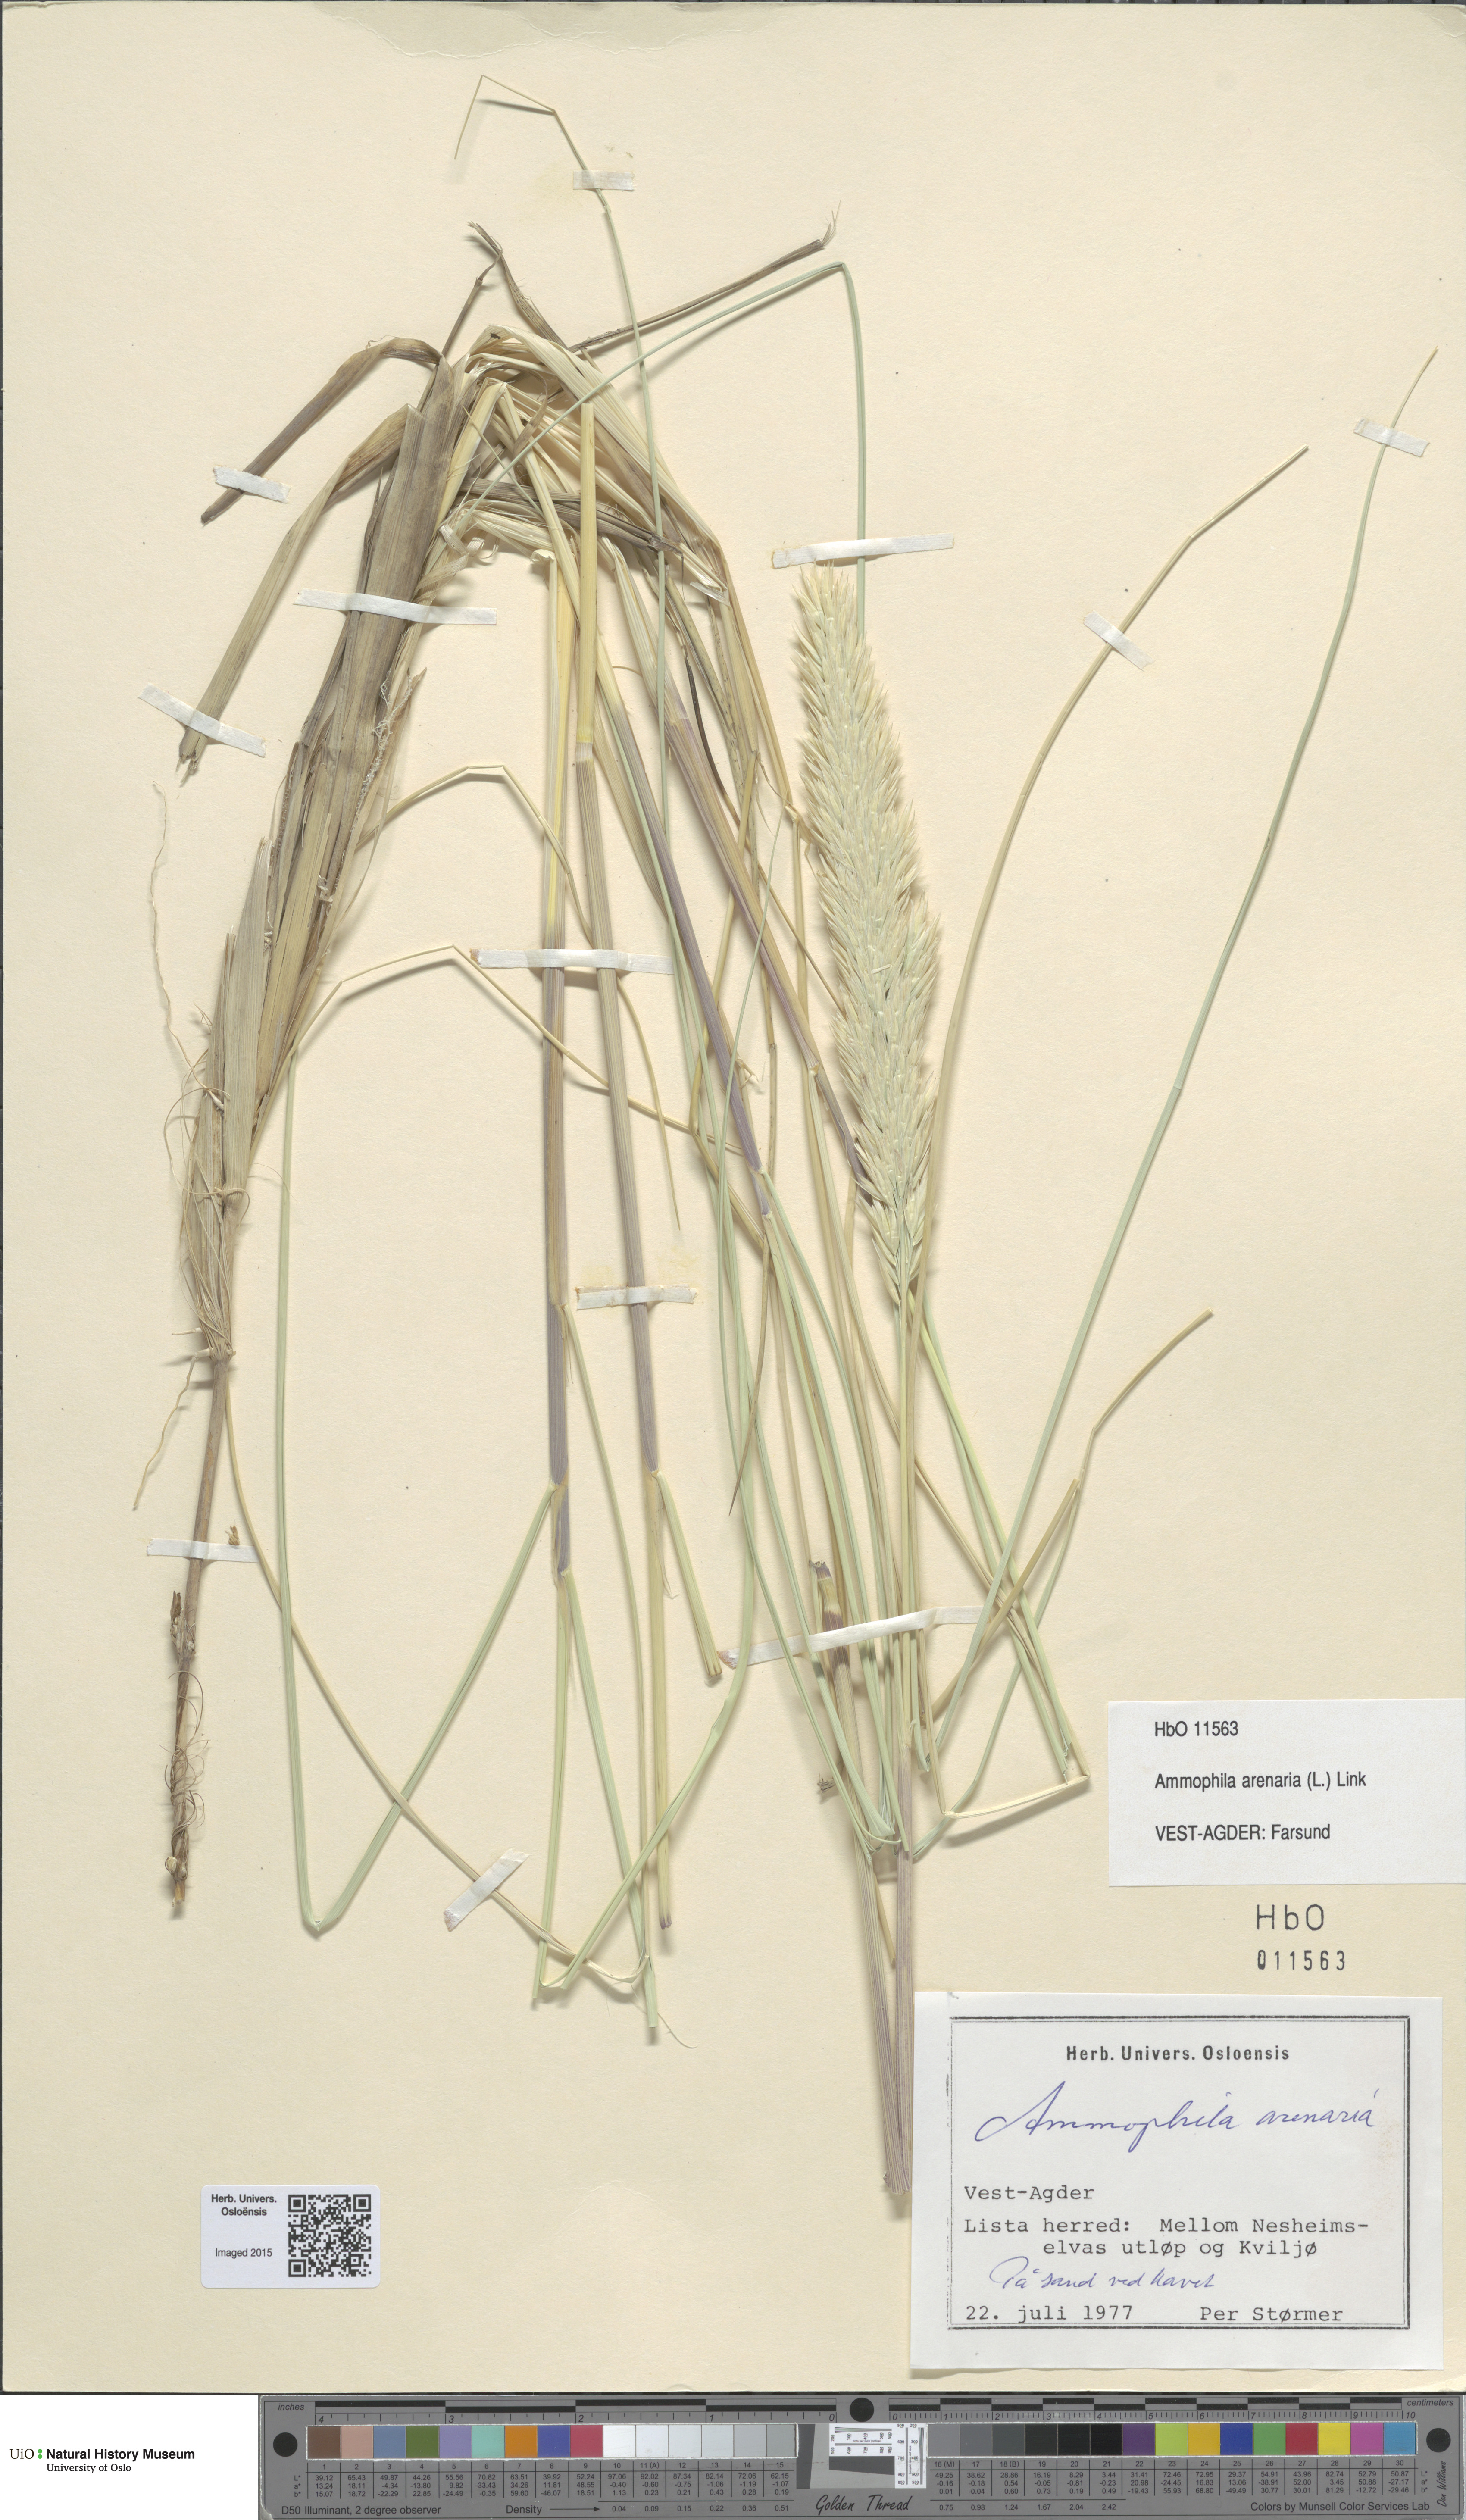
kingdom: Plantae
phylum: Tracheophyta
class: Liliopsida
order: Poales
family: Poaceae
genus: Calamagrostis
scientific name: Calamagrostis arenaria
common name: European beachgrass
